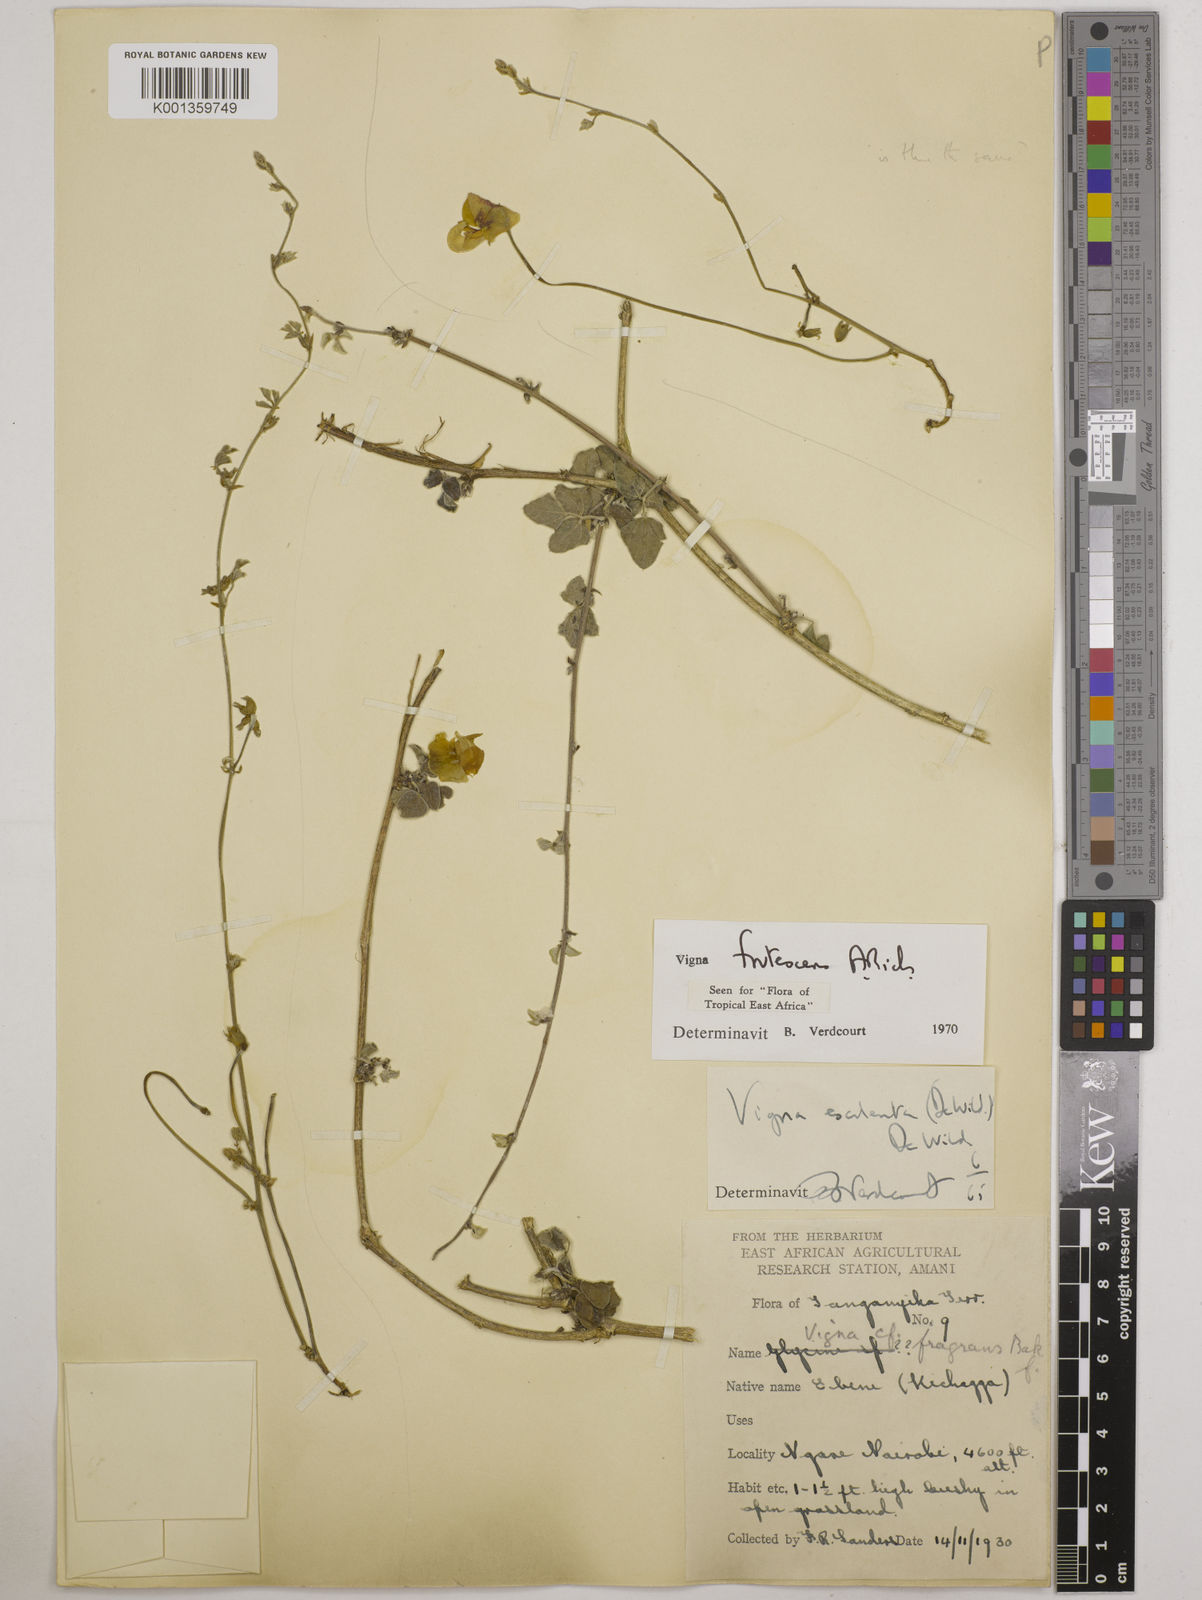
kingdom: Plantae
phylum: Tracheophyta
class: Magnoliopsida
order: Fabales
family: Fabaceae
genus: Vigna
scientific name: Vigna frutescens
